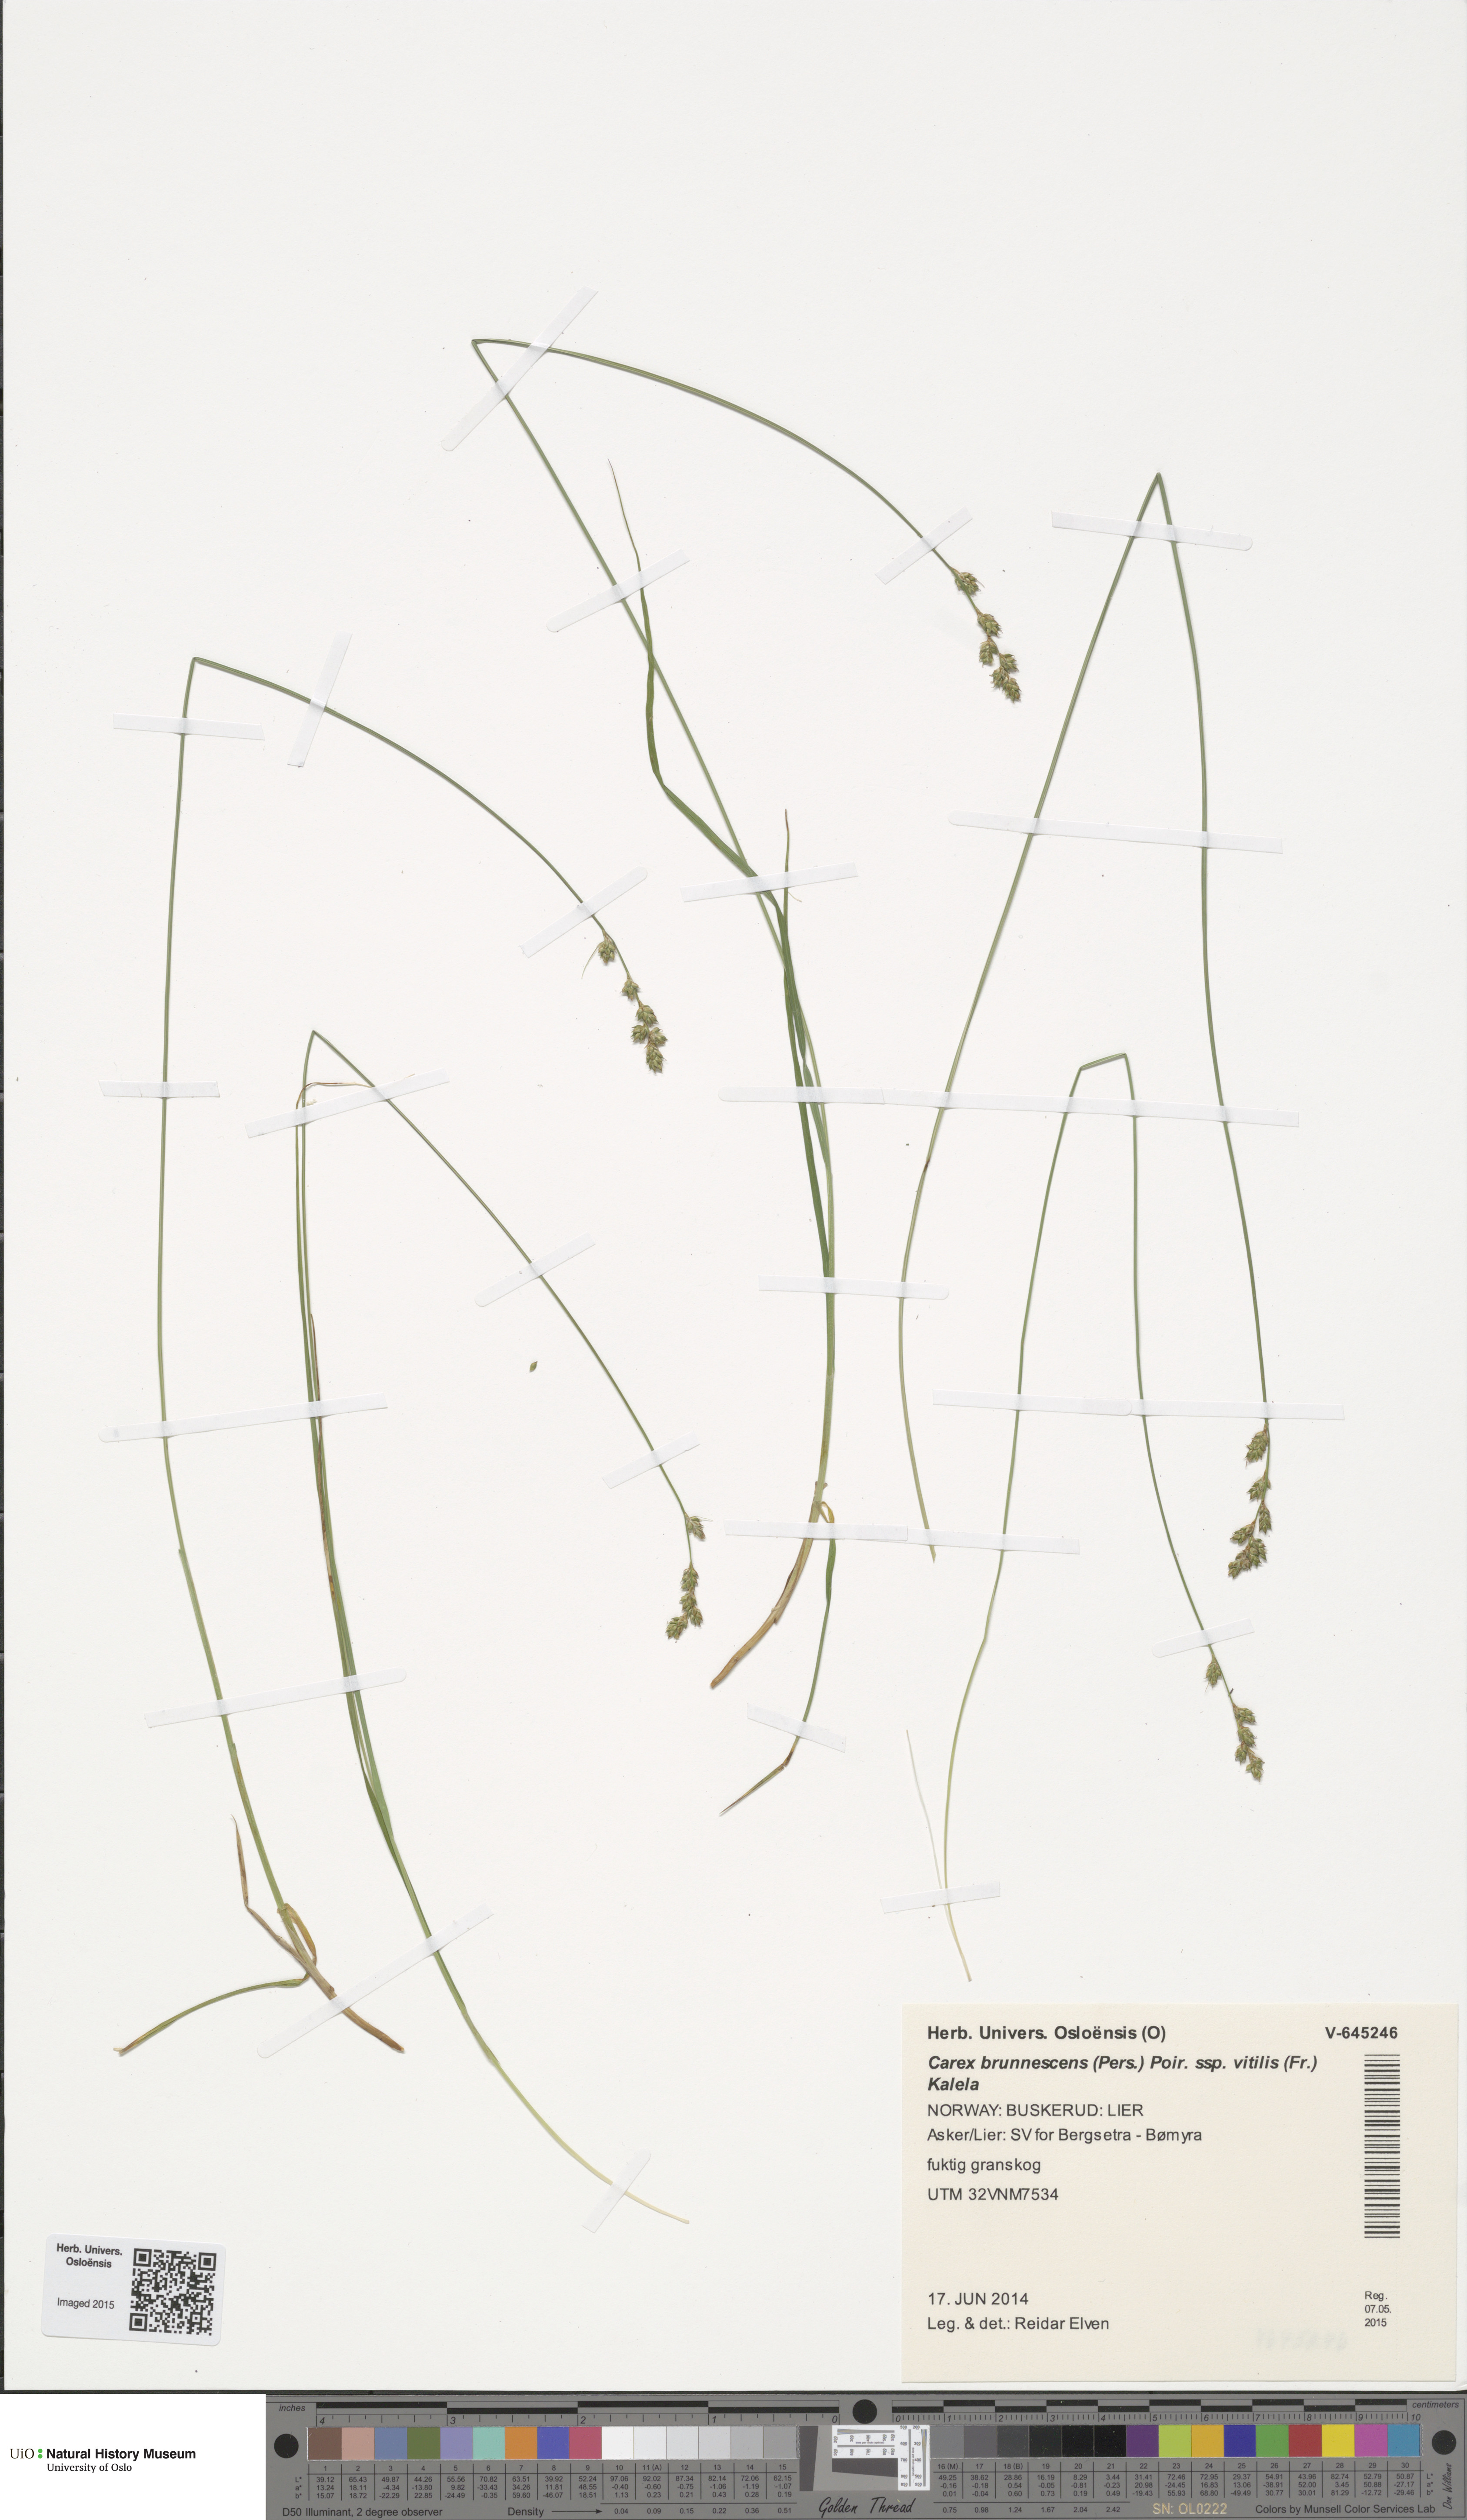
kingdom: Plantae
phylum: Tracheophyta
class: Liliopsida
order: Poales
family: Cyperaceae
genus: Carex
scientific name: Carex brunnescens
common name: Brown sedge
